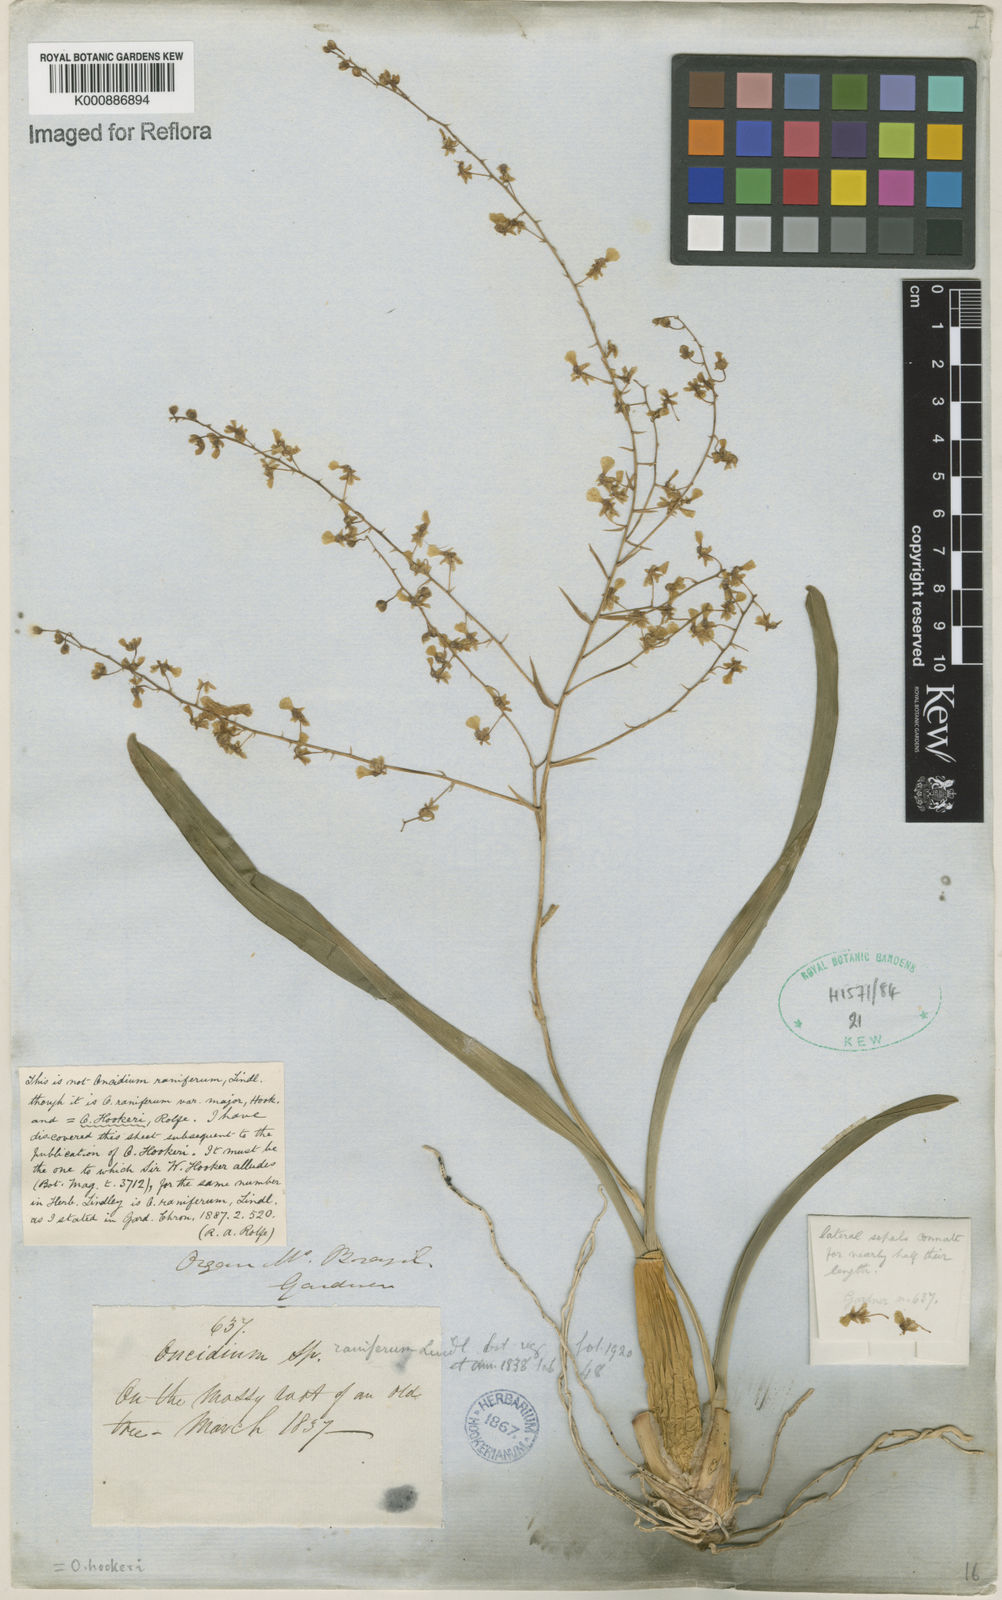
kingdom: Plantae
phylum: Tracheophyta
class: Liliopsida
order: Asparagales
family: Orchidaceae
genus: Gomesa
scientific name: Gomesa ranifera
